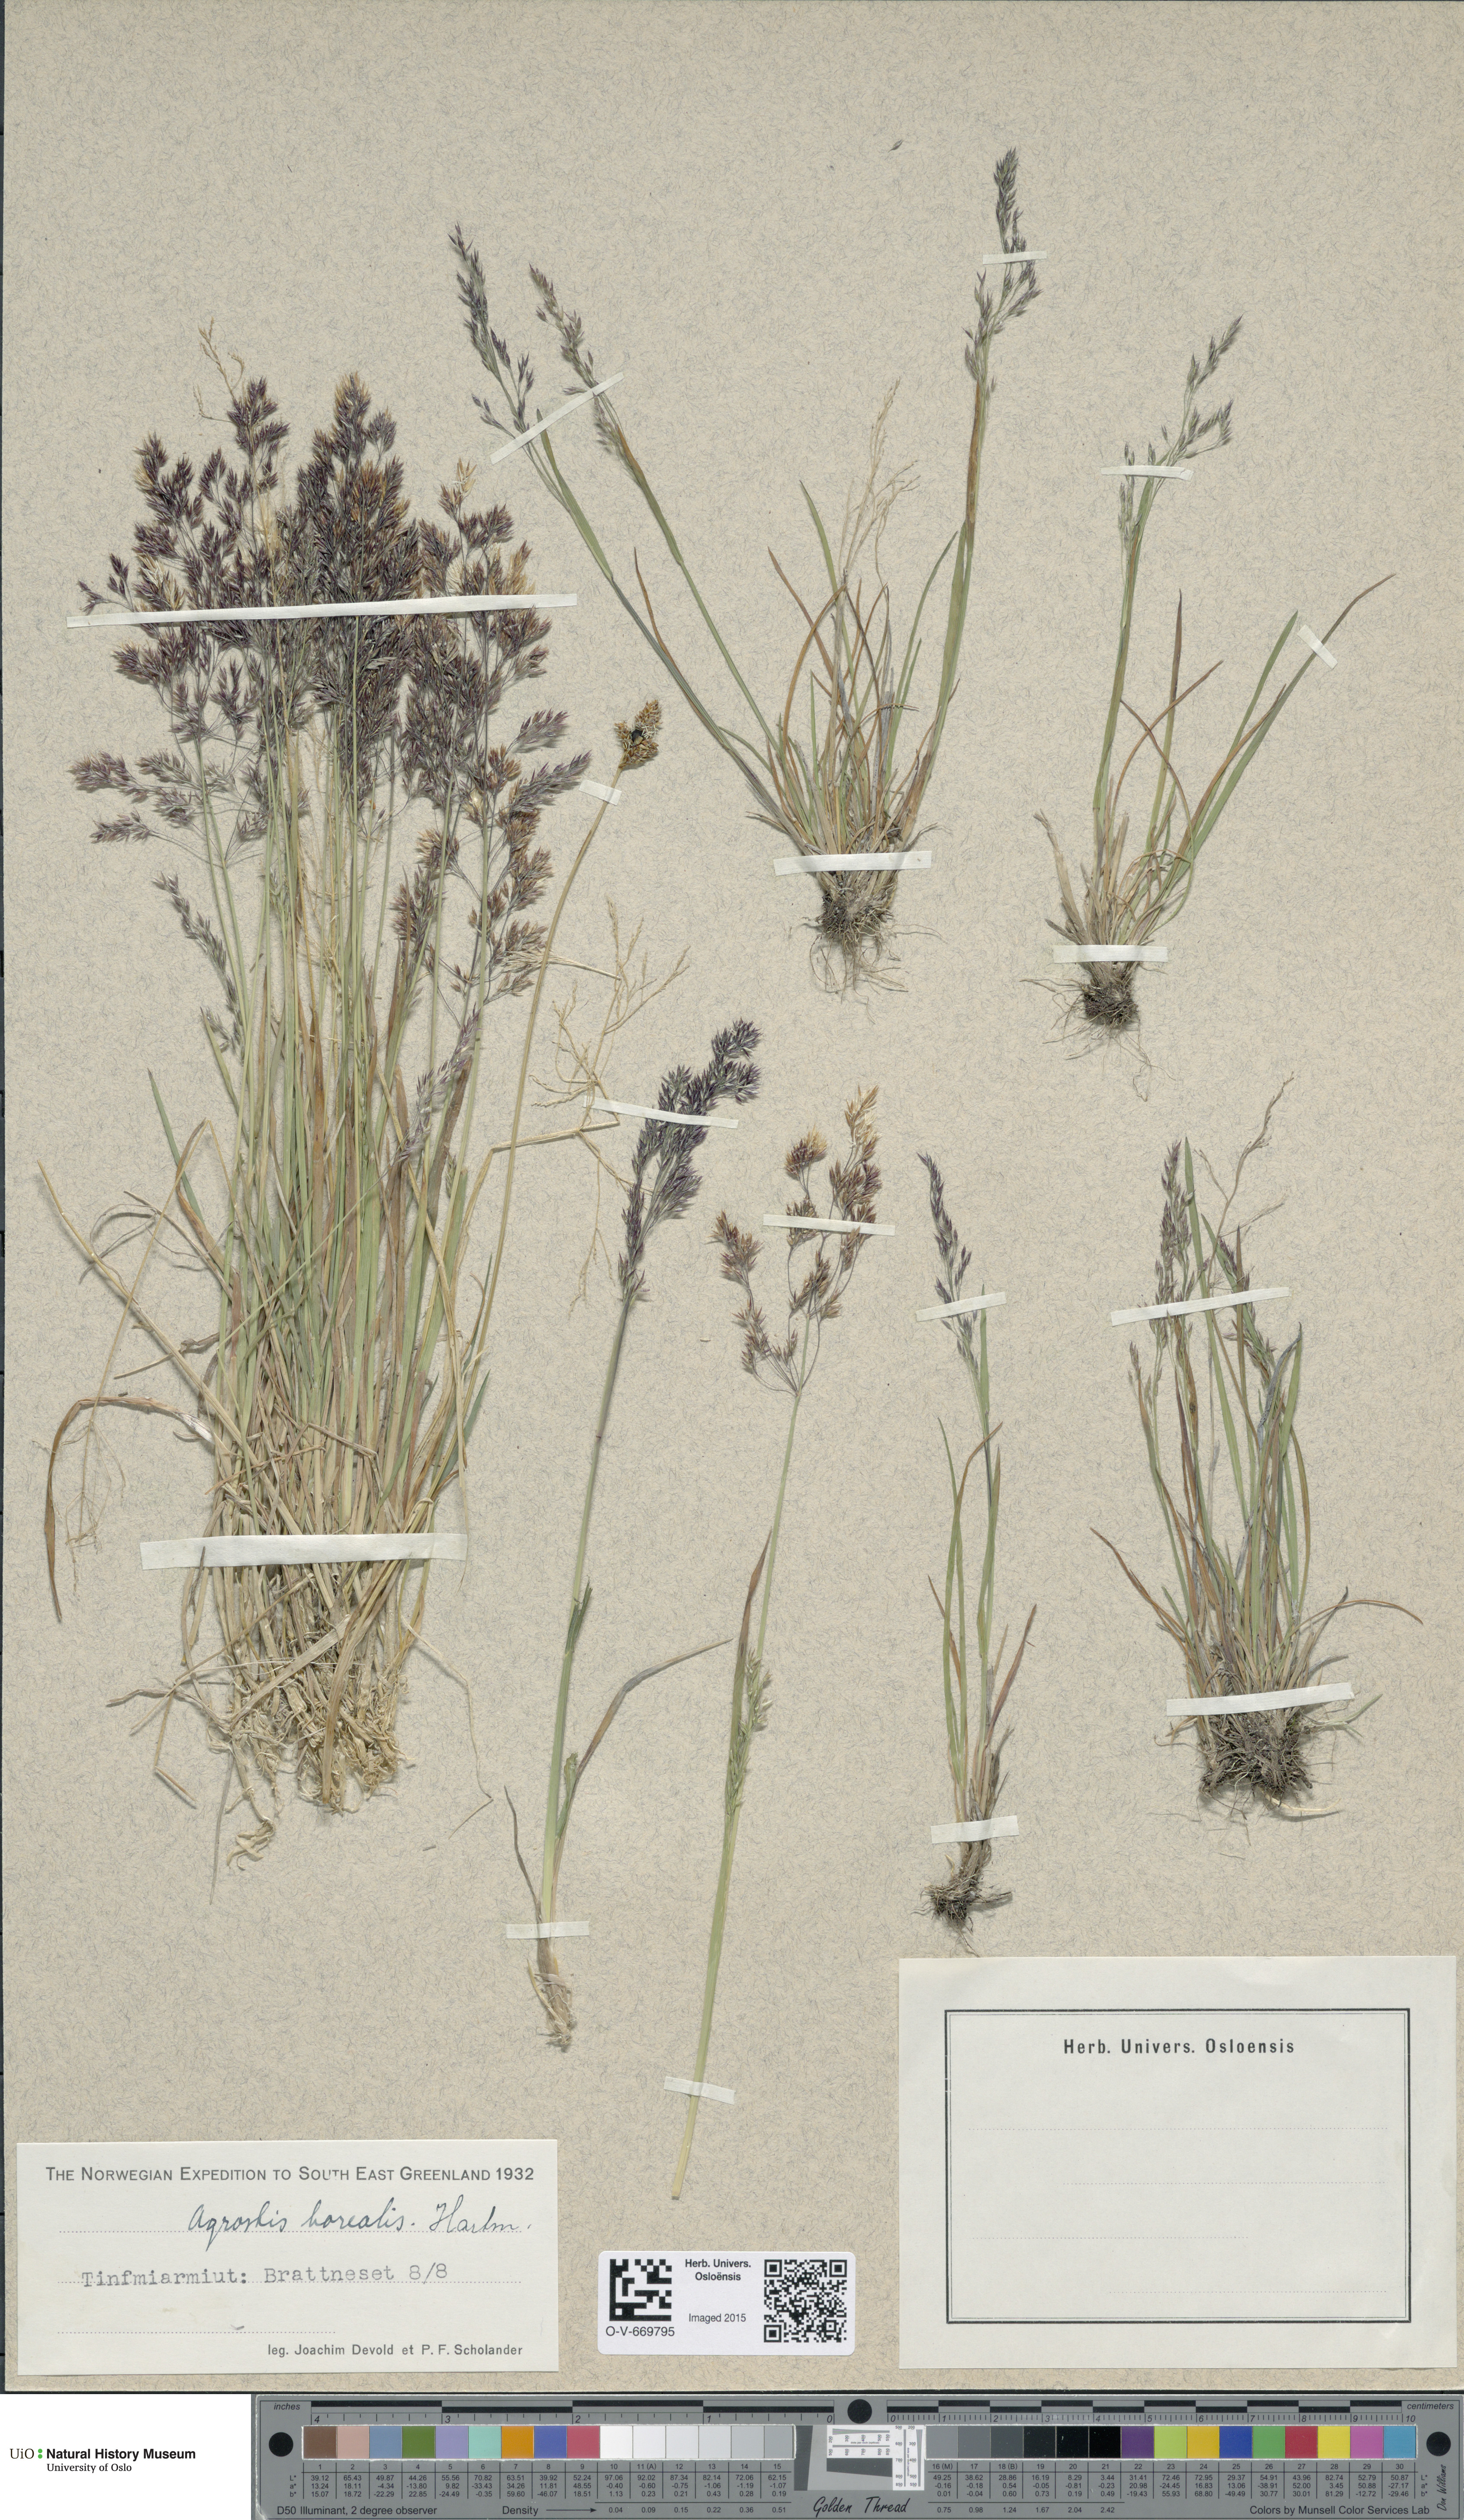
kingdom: Plantae
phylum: Tracheophyta
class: Liliopsida
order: Poales
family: Poaceae
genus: Agrostis
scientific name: Agrostis mertensii
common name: Northern bent
